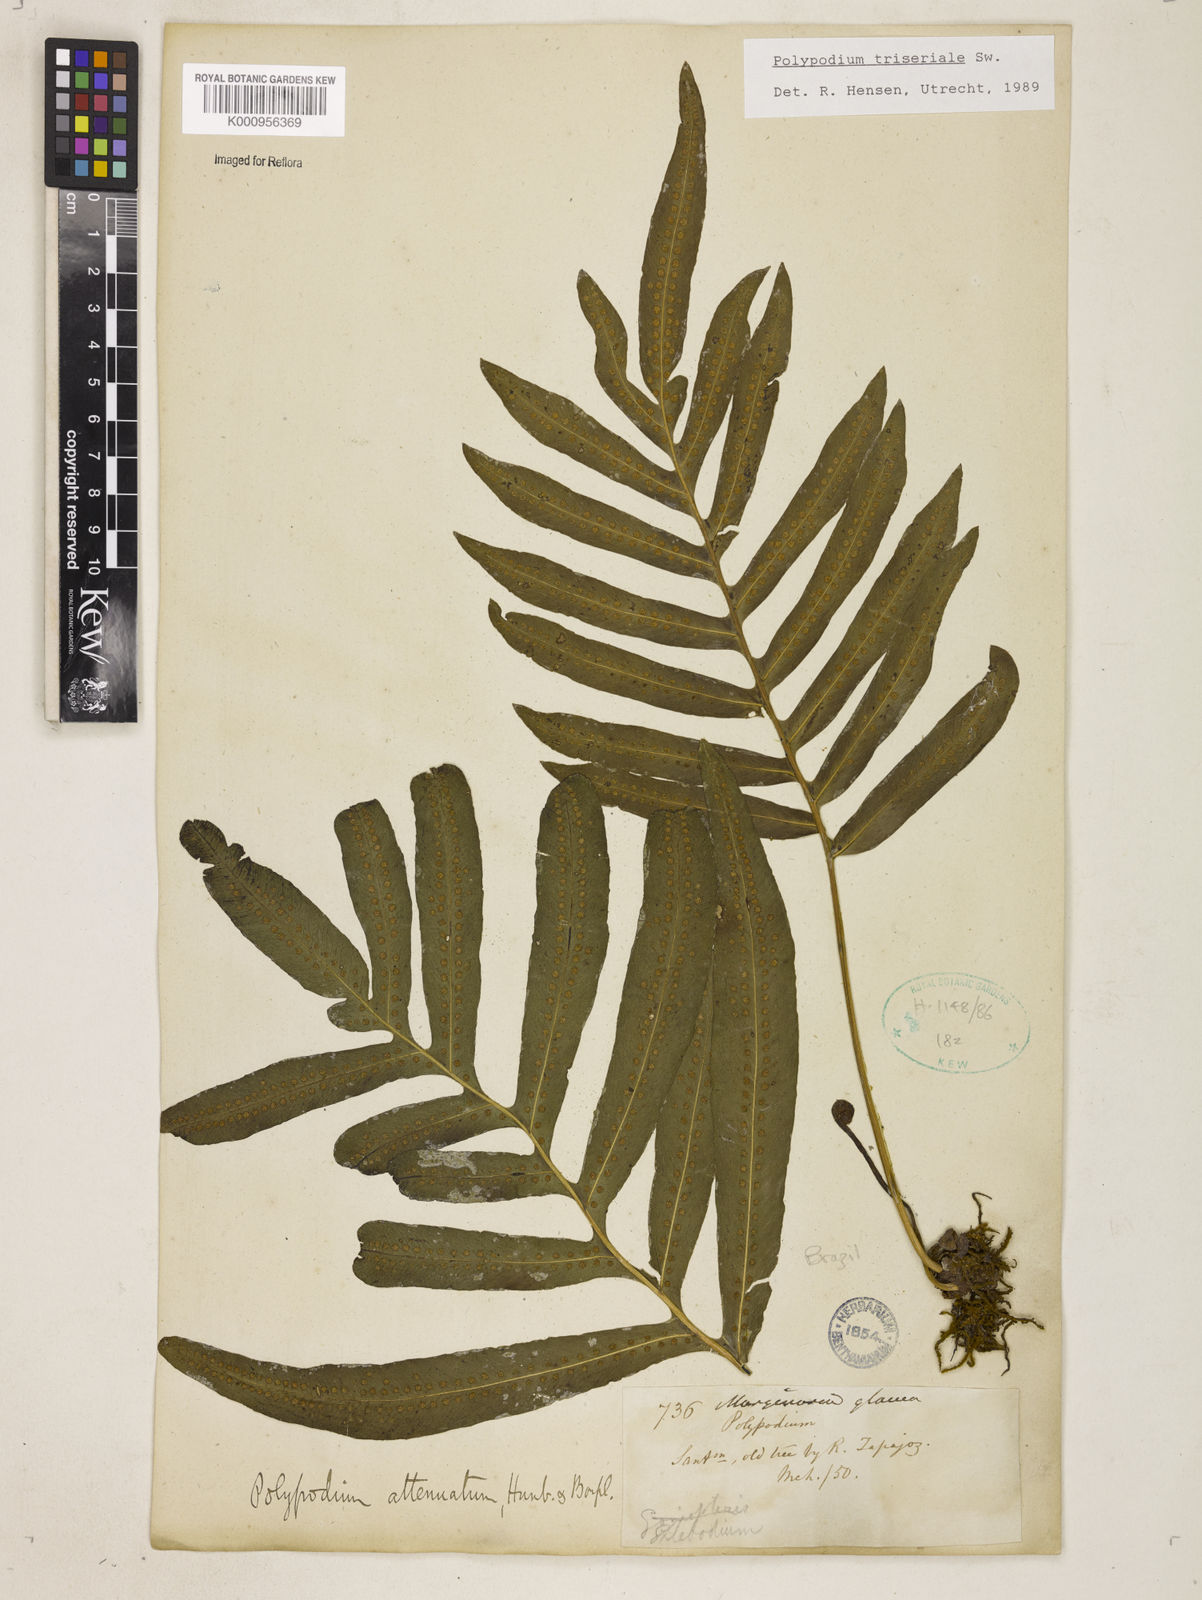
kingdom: Plantae
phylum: Tracheophyta
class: Polypodiopsida
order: Polypodiales
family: Polypodiaceae
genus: Serpocaulon
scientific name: Serpocaulon triseriale
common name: Angle-vein fern
